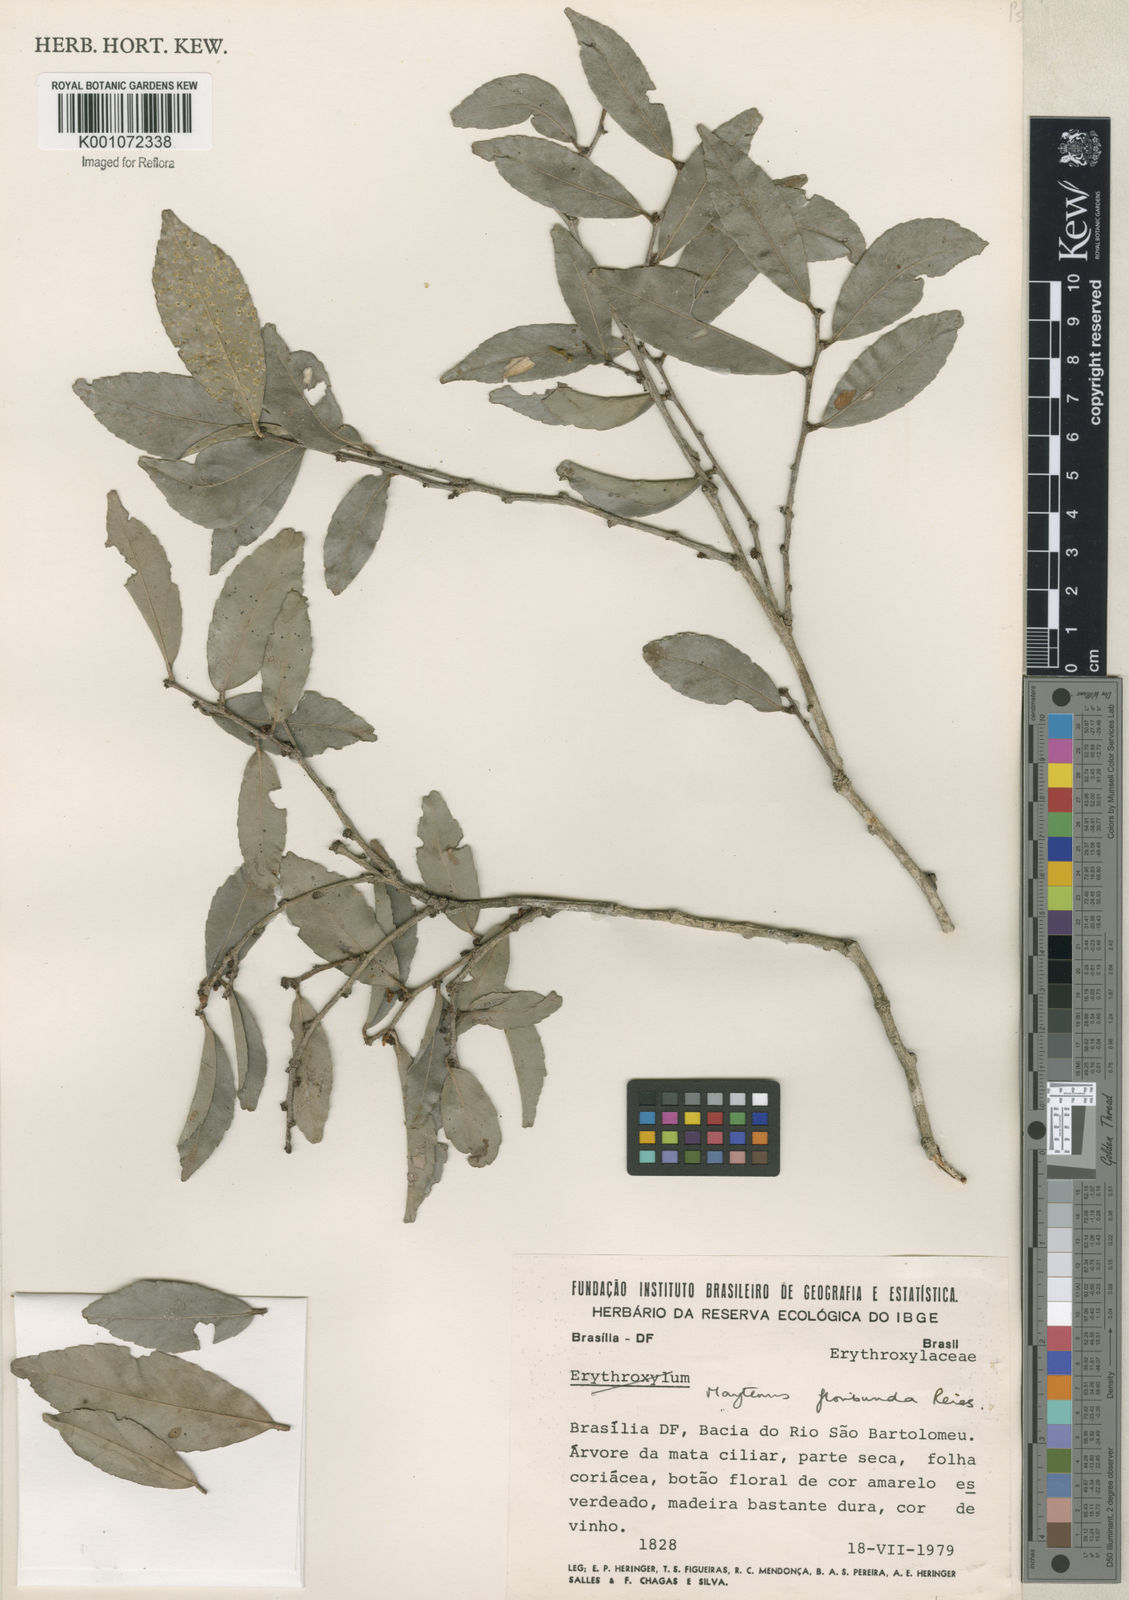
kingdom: Plantae
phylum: Tracheophyta
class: Magnoliopsida
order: Celastrales
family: Celastraceae
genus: Monteverdia
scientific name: Monteverdia floribunda
